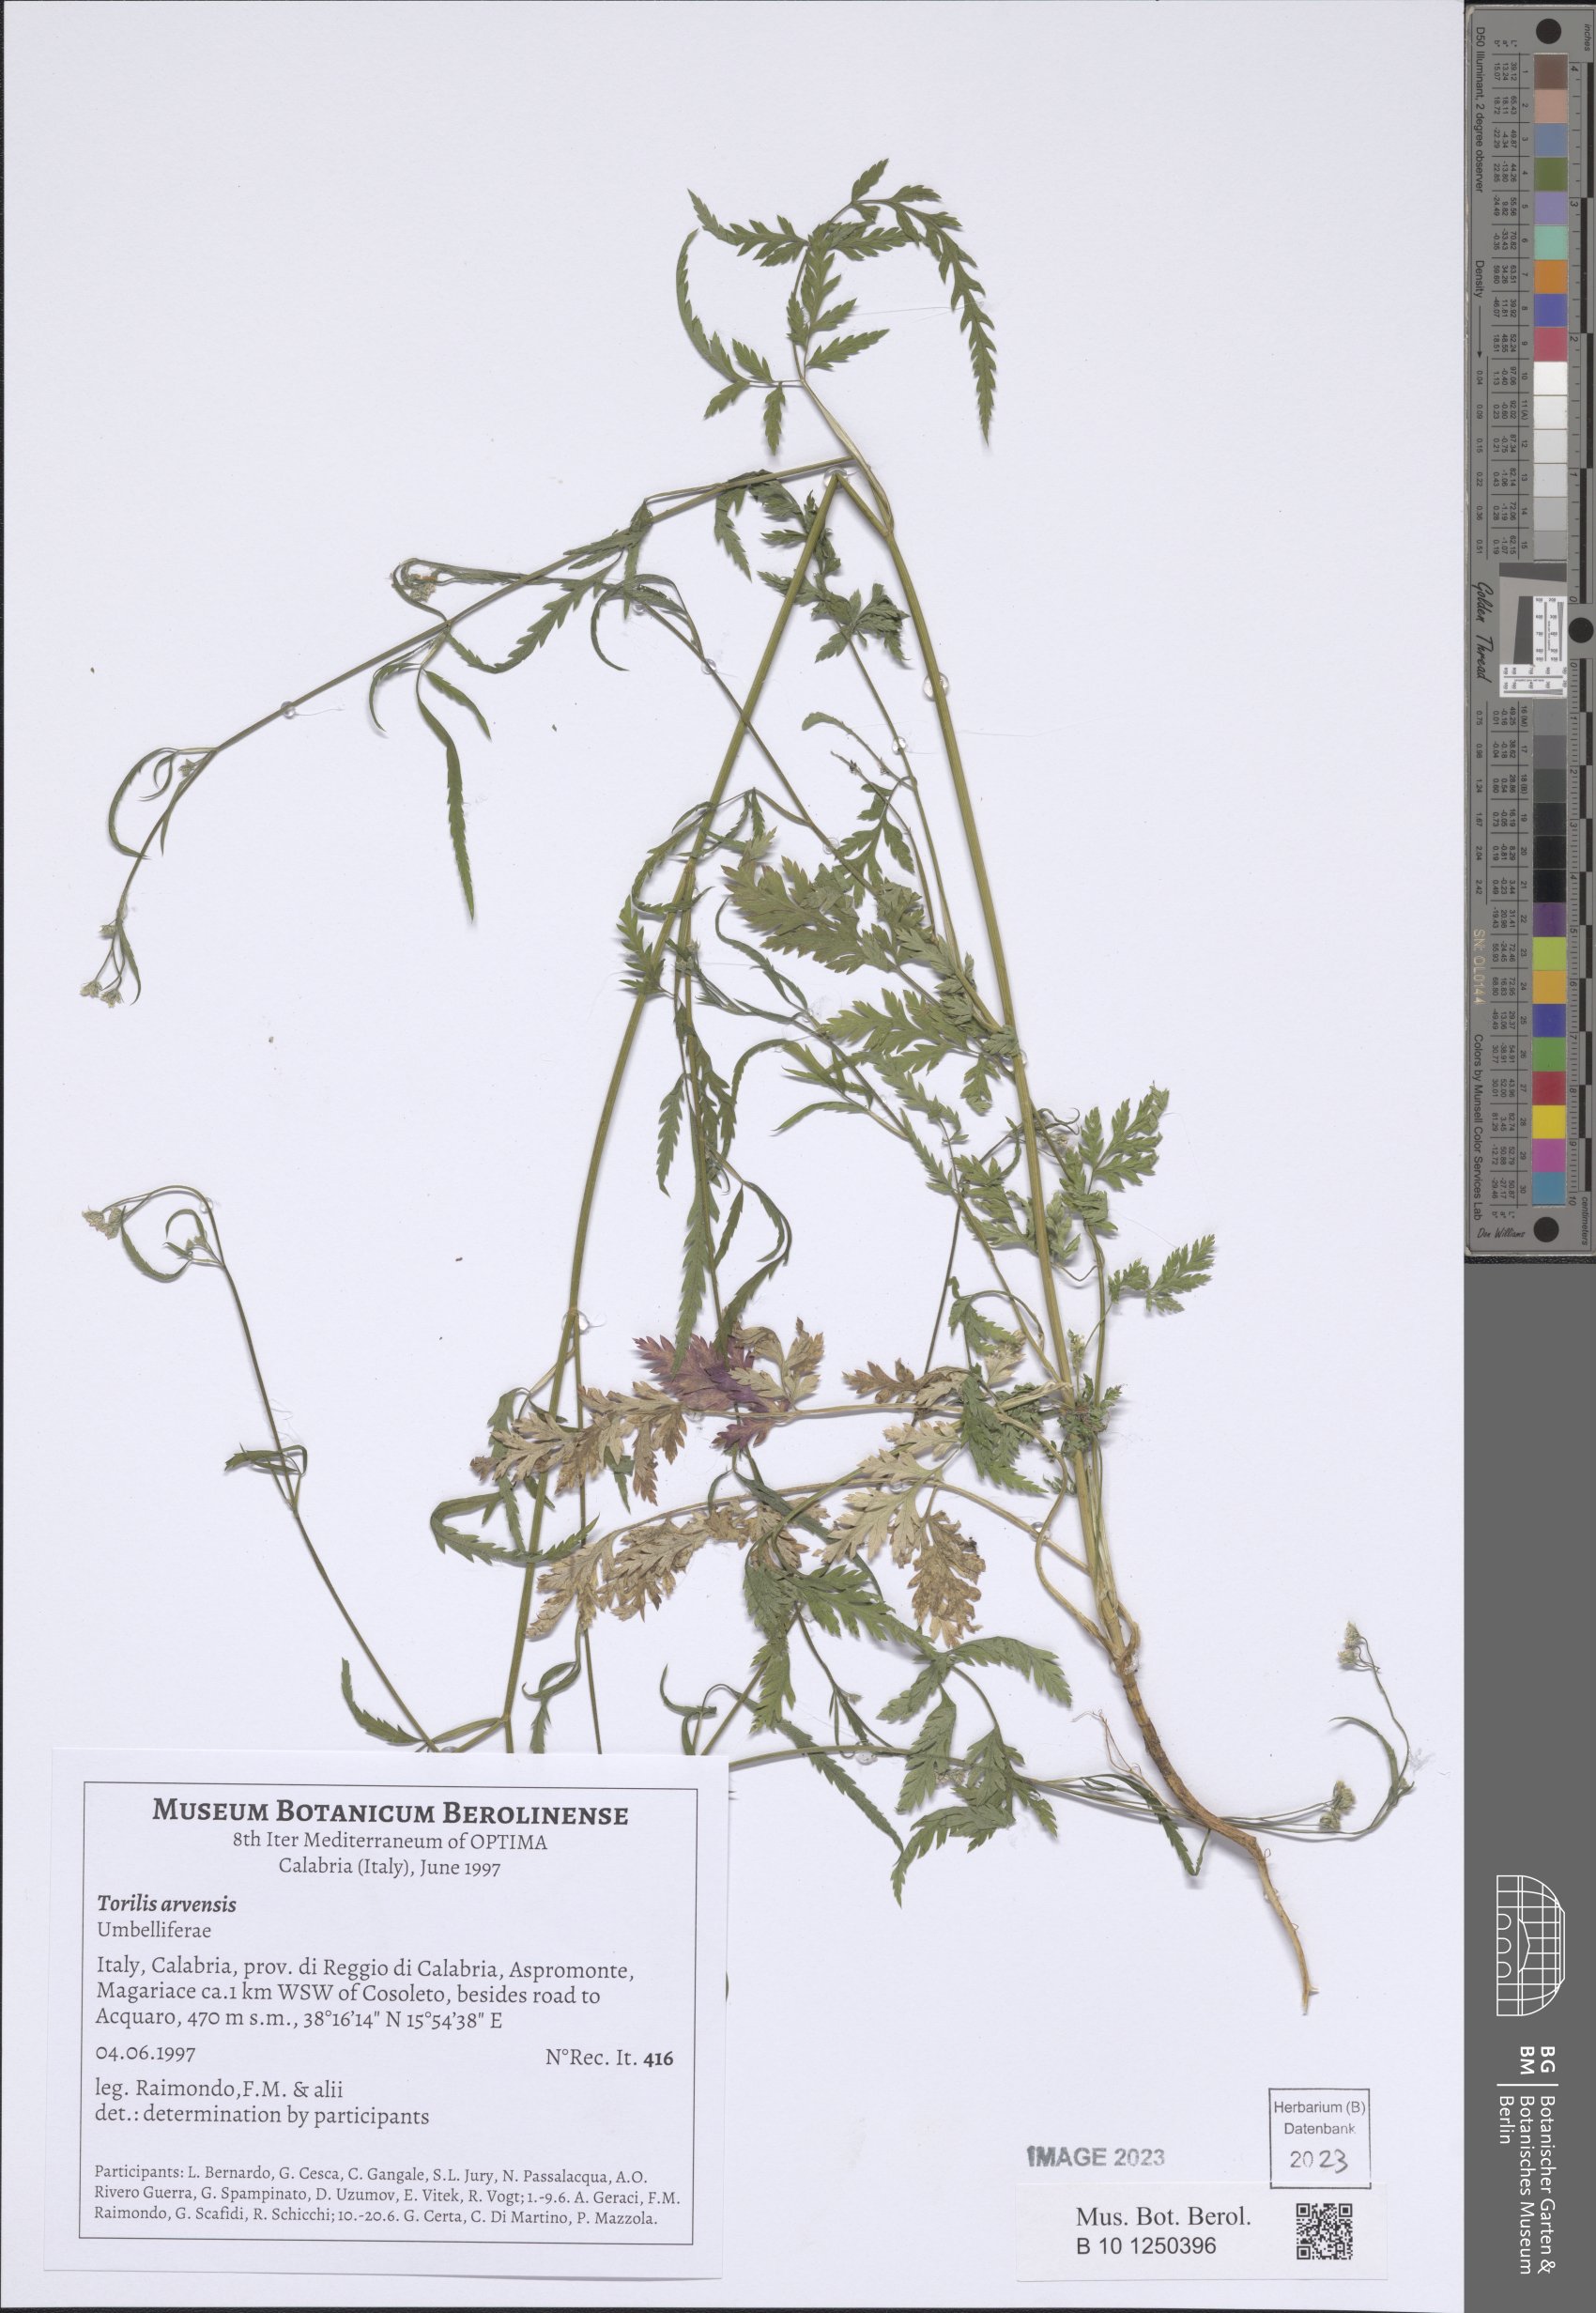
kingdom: Plantae
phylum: Tracheophyta
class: Magnoliopsida
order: Apiales
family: Apiaceae
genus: Torilis
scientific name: Torilis arvensis
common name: Spreading hedge-parsley
